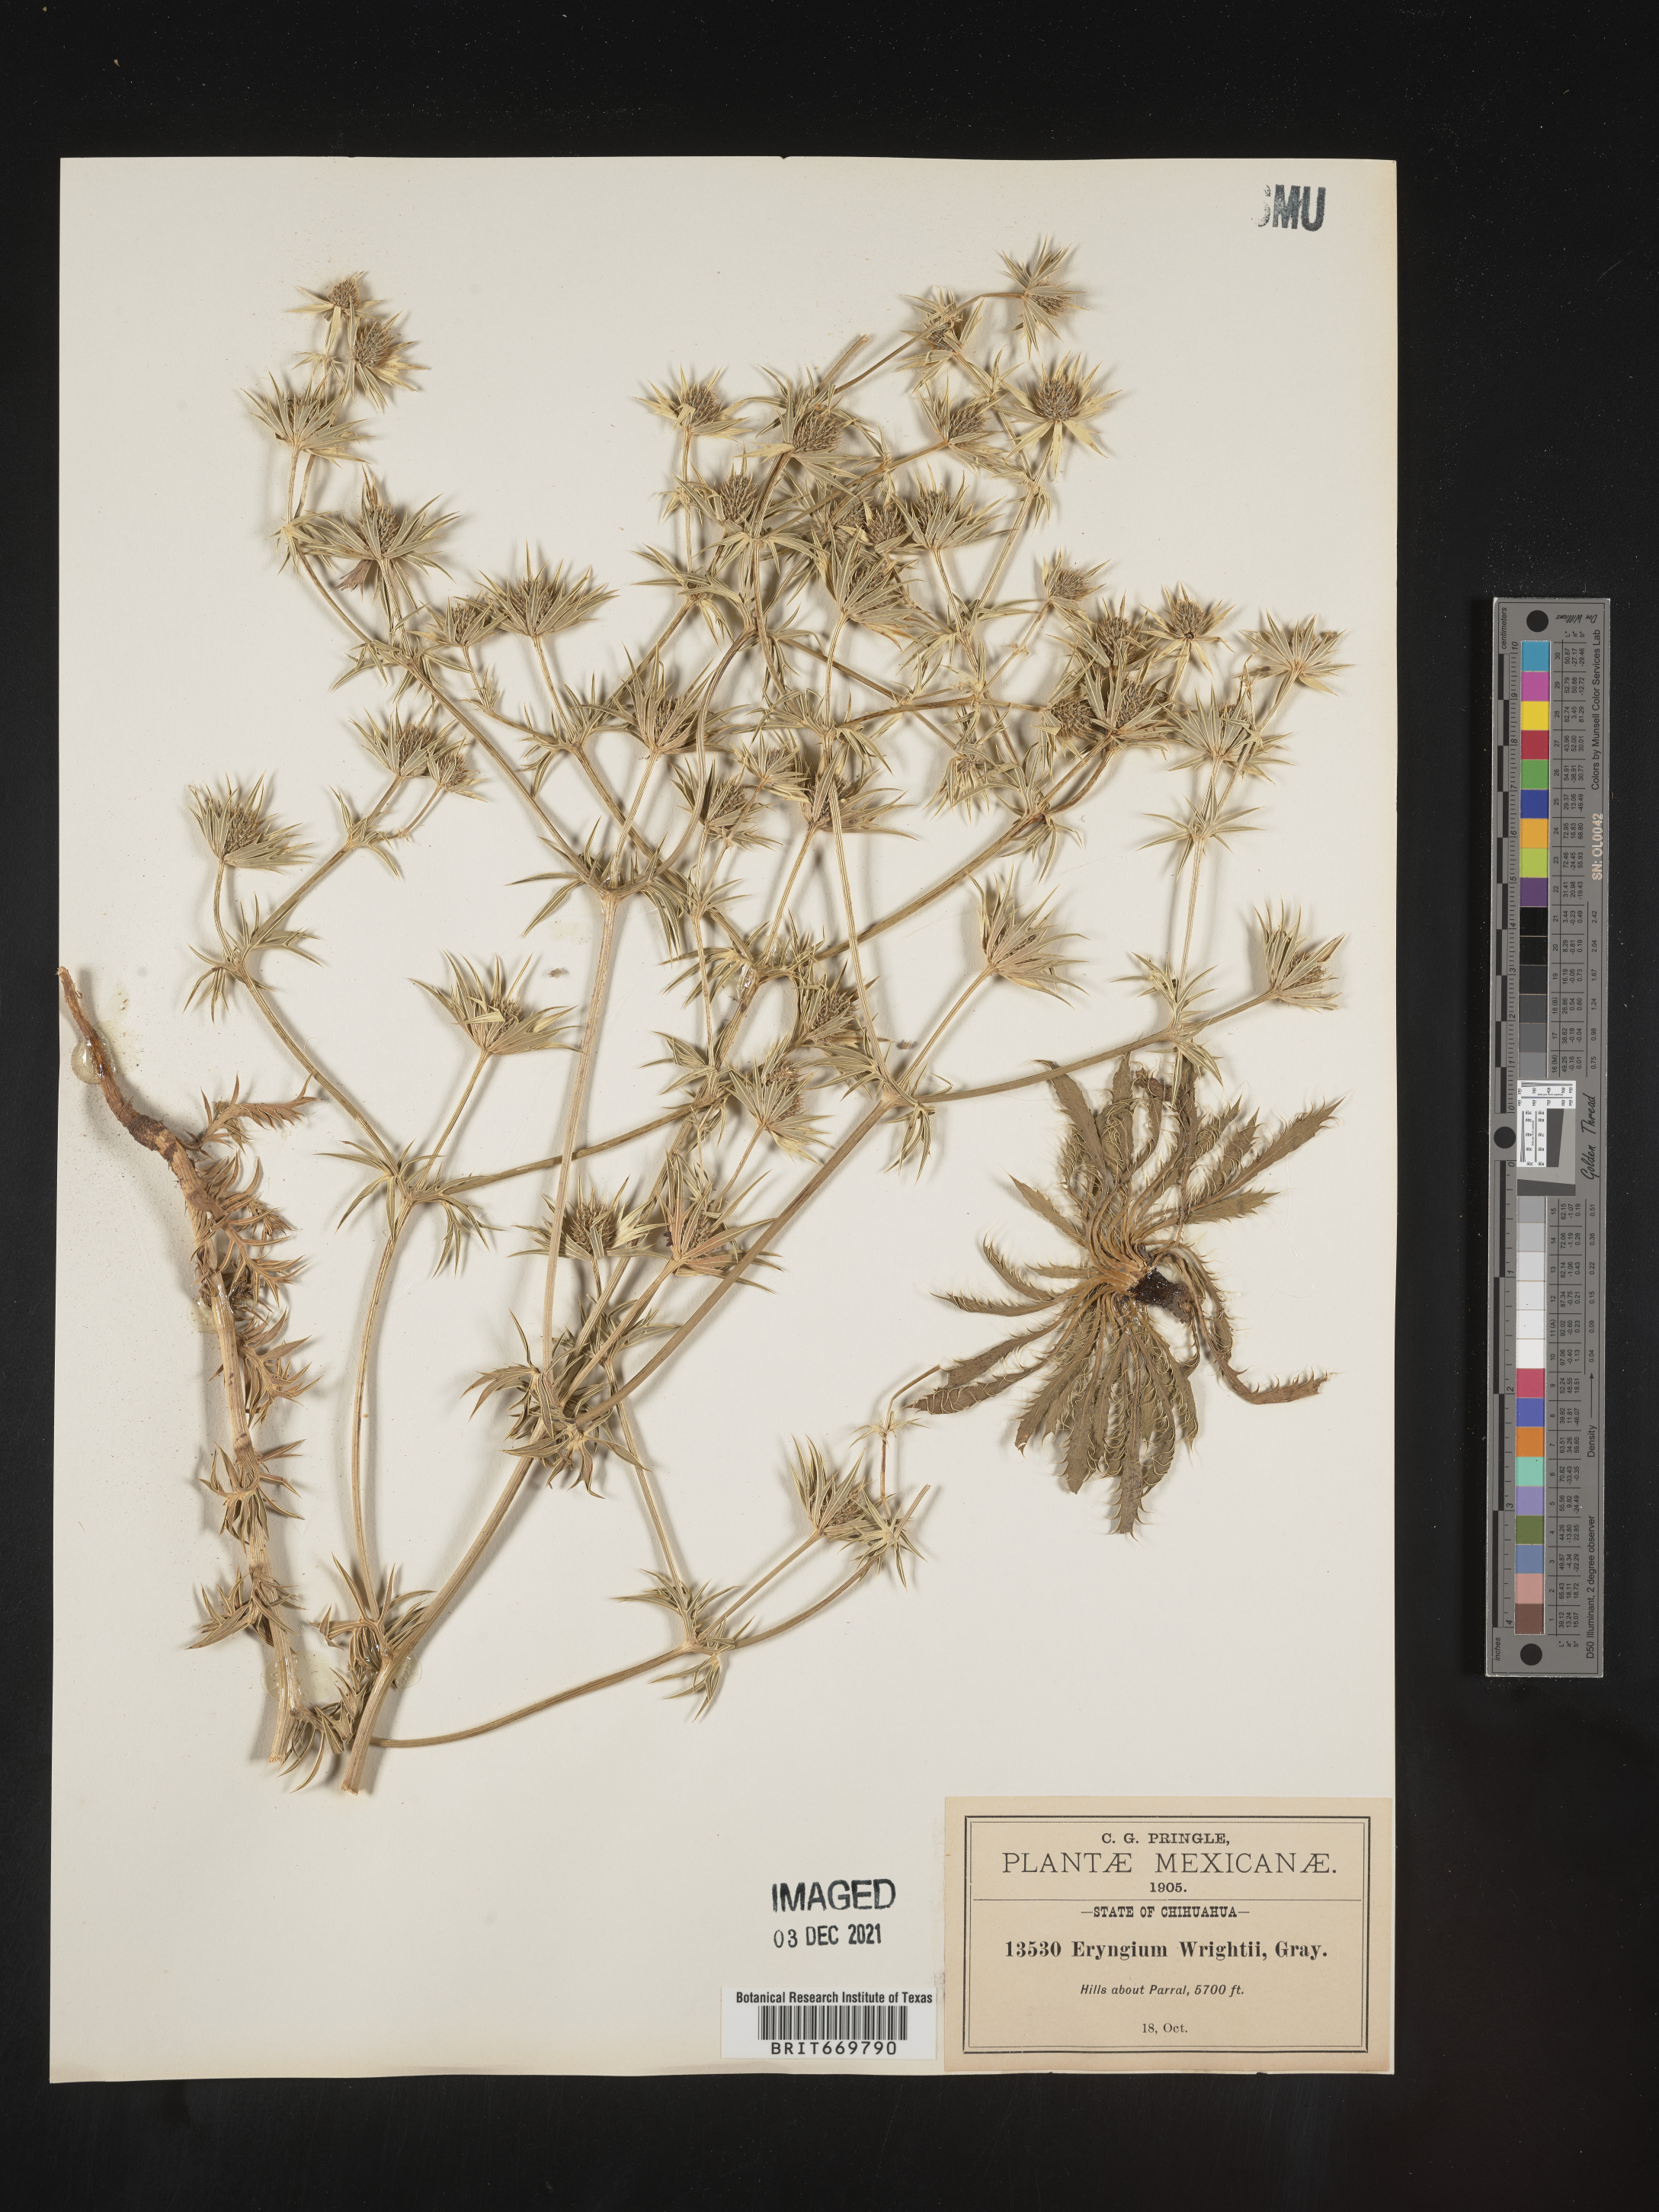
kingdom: Plantae
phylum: Tracheophyta
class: Magnoliopsida
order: Apiales
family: Apiaceae
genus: Eryngium
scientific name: Eryngium
